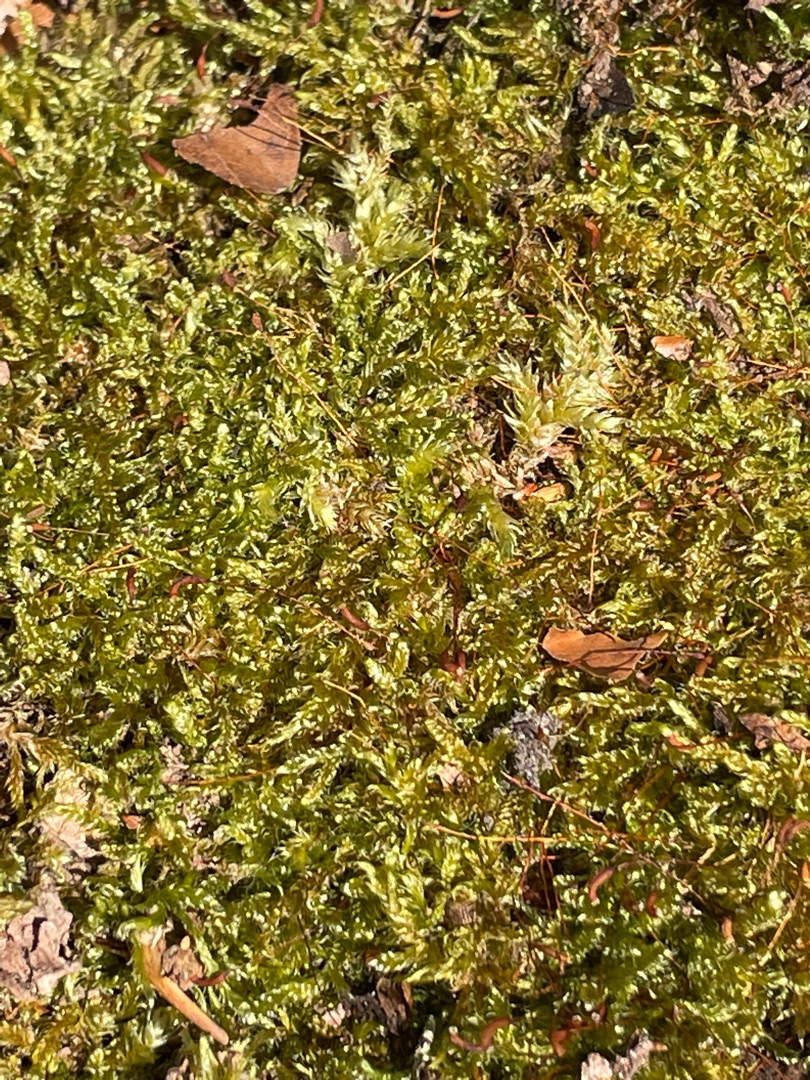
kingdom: Plantae
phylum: Bryophyta
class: Bryopsida
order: Hypnales
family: Hypnaceae
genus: Hypnum
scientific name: Hypnum cupressiforme
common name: Almindelig cypresmos
